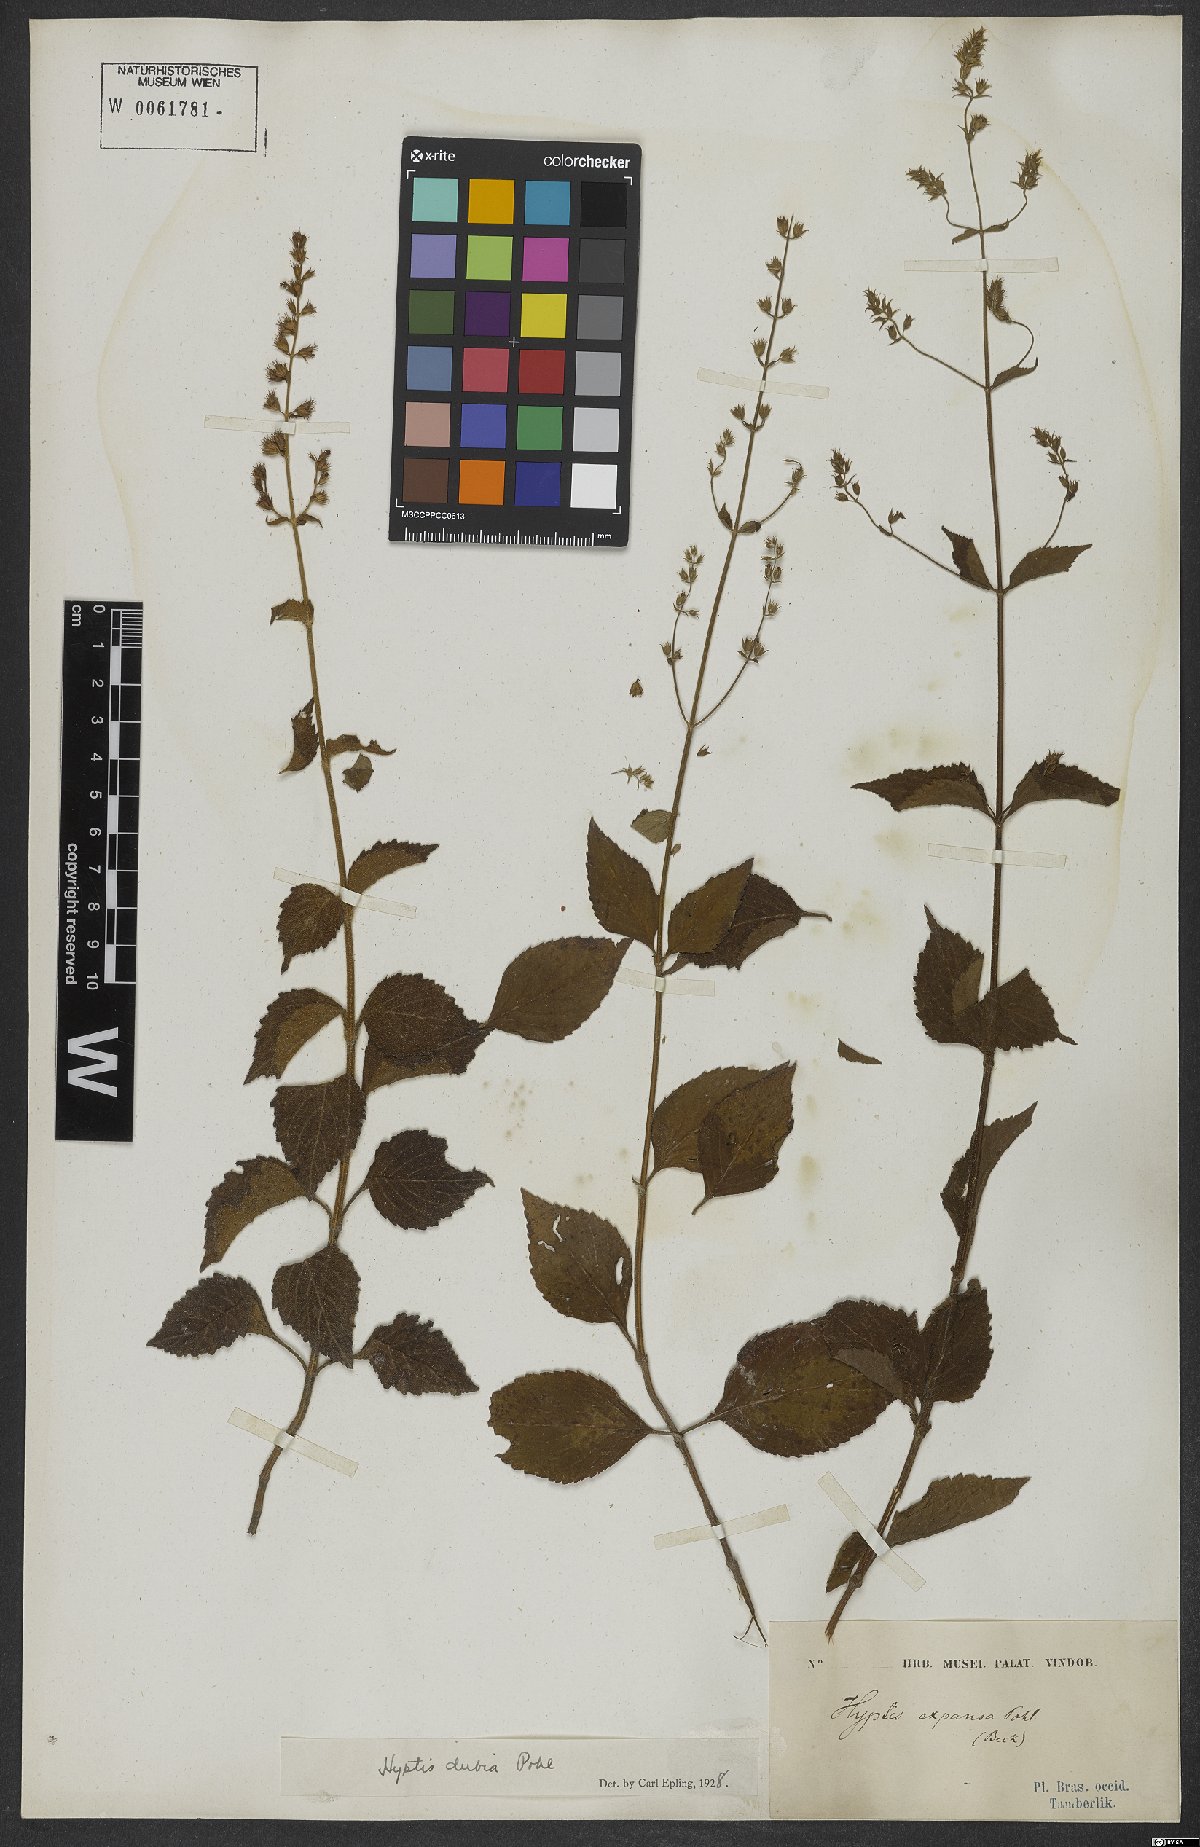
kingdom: Plantae
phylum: Tracheophyta
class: Magnoliopsida
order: Lamiales
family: Lamiaceae
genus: Cantinoa
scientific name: Cantinoa dubia
